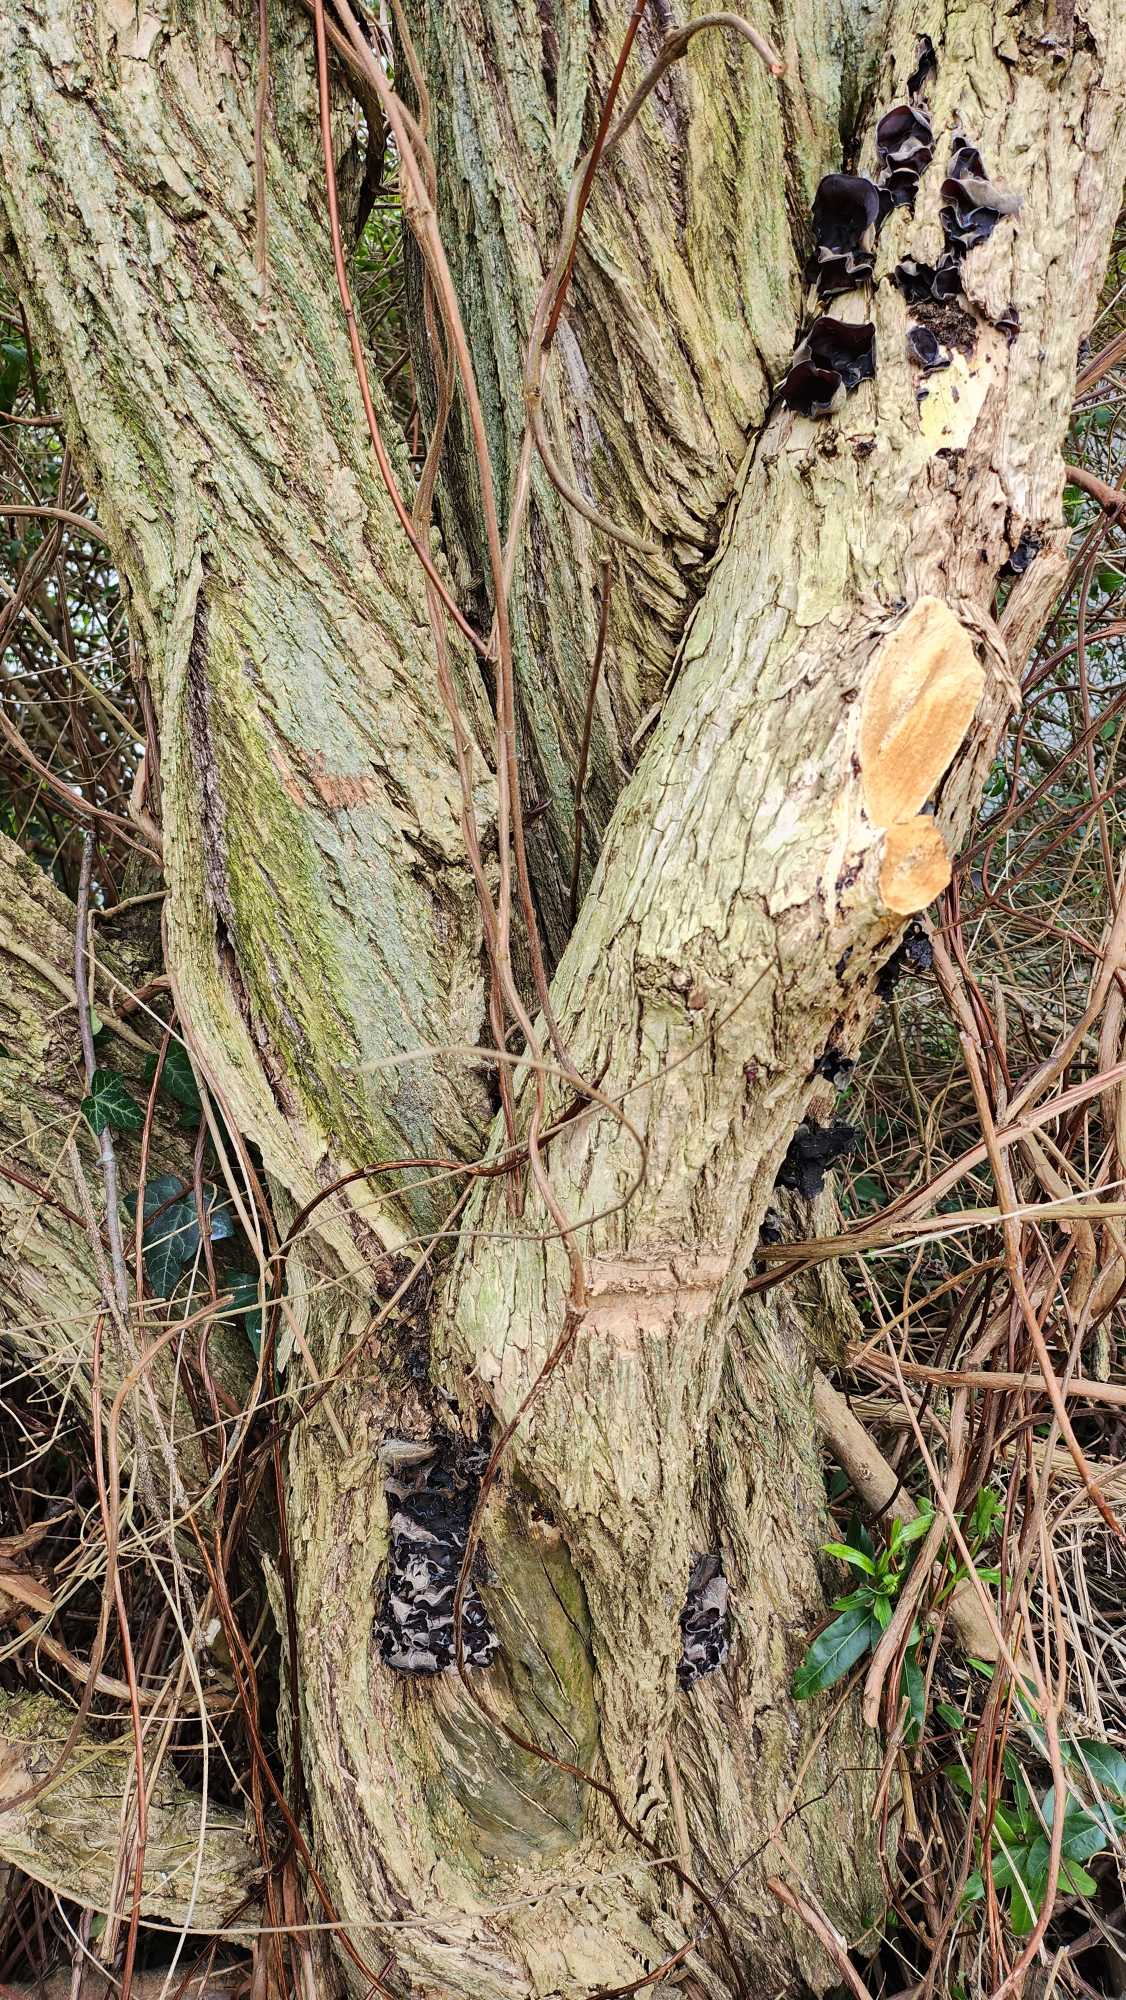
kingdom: Fungi
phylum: Basidiomycota
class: Agaricomycetes
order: Auriculariales
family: Auriculariaceae
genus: Auricularia
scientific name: Auricularia
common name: Judasøre
